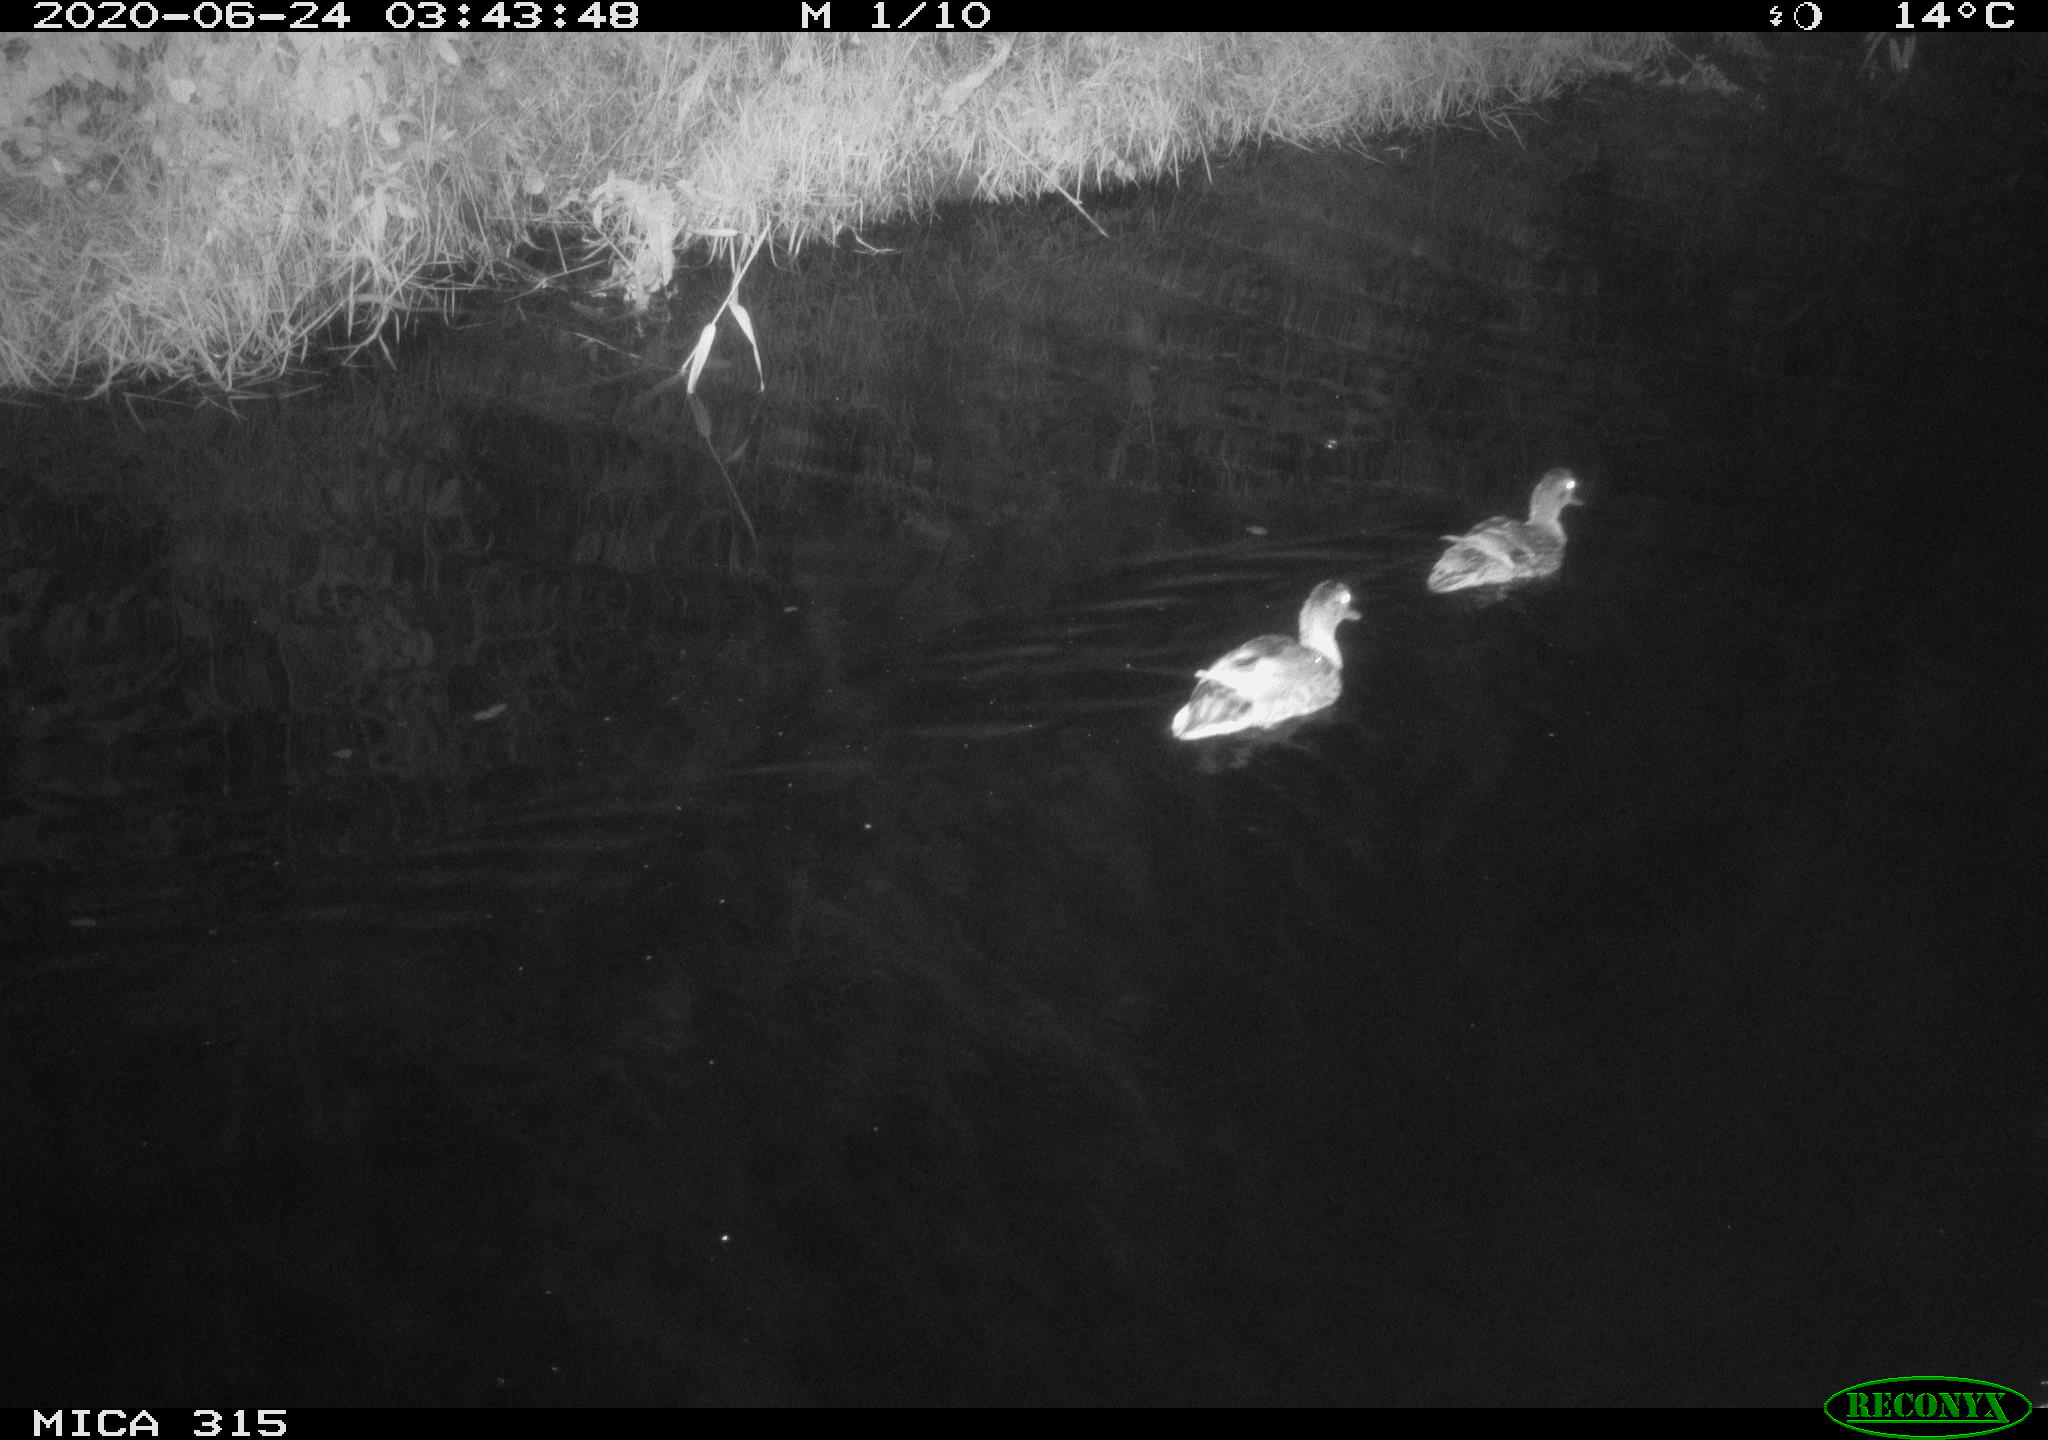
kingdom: Animalia
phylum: Chordata
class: Aves
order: Anseriformes
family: Anatidae
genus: Anas
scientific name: Anas platyrhynchos
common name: Mallard
